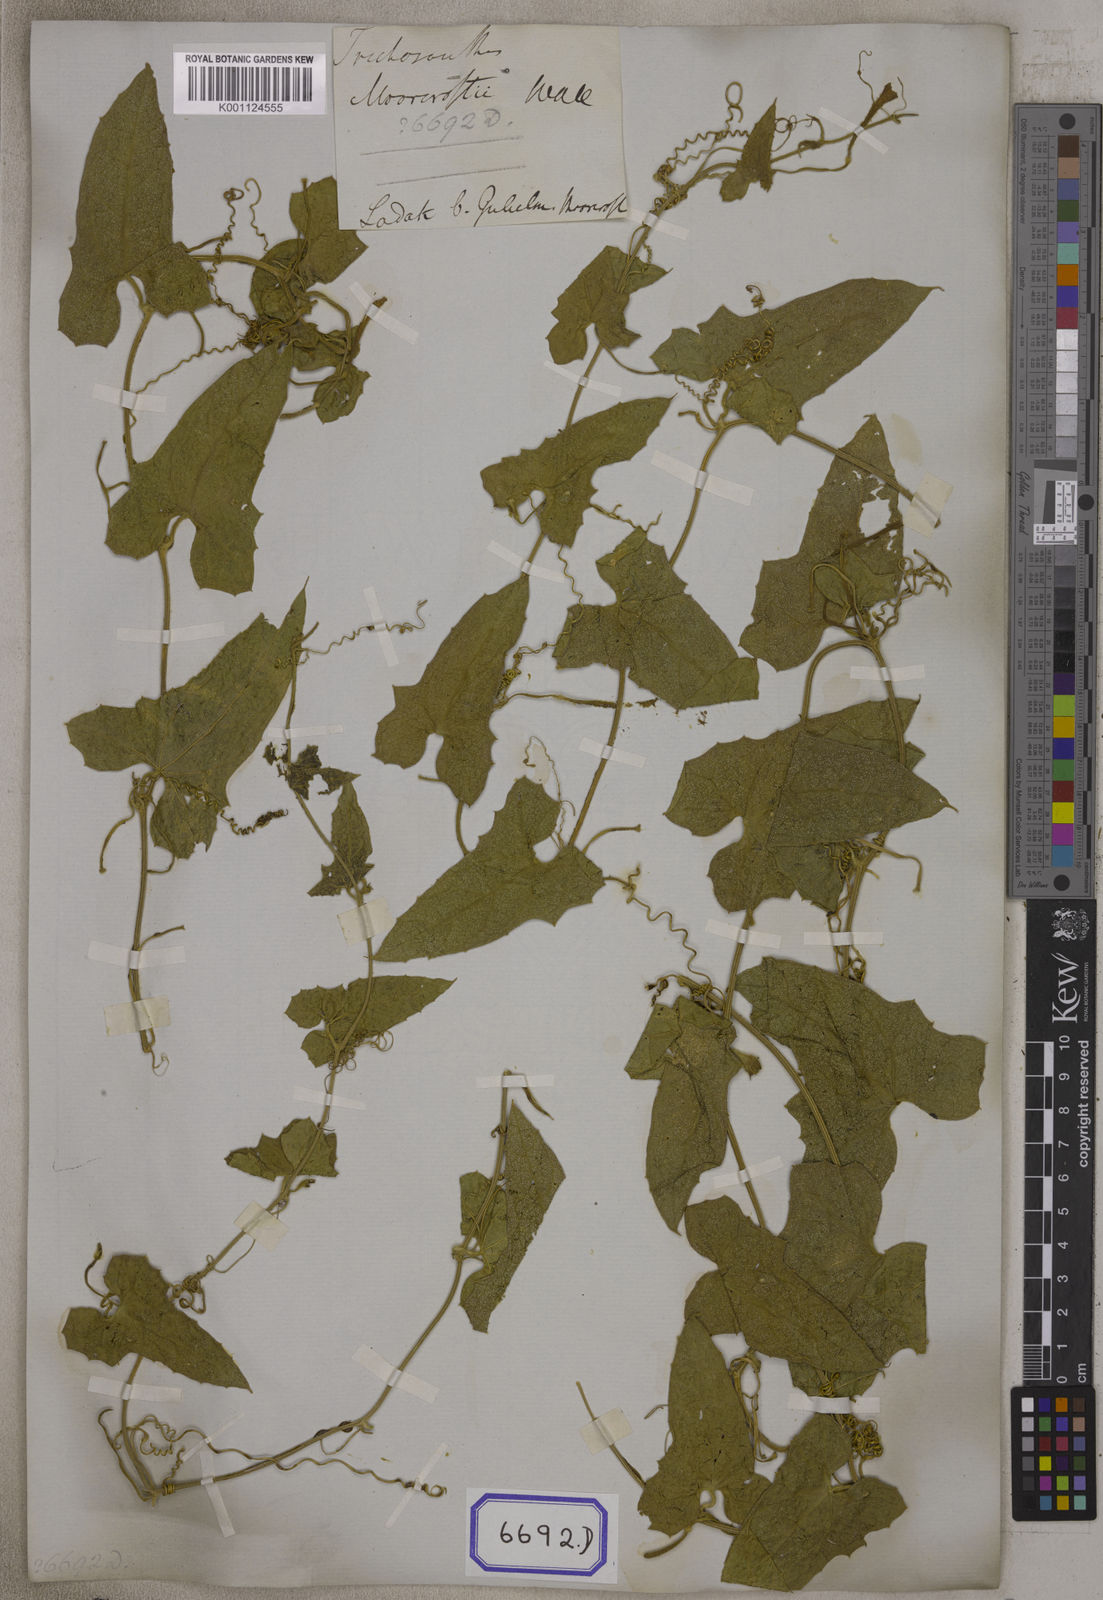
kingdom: Plantae
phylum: Tracheophyta
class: Magnoliopsida
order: Cucurbitales
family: Cucurbitaceae
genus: Trichosanthes
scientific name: Trichosanthes
